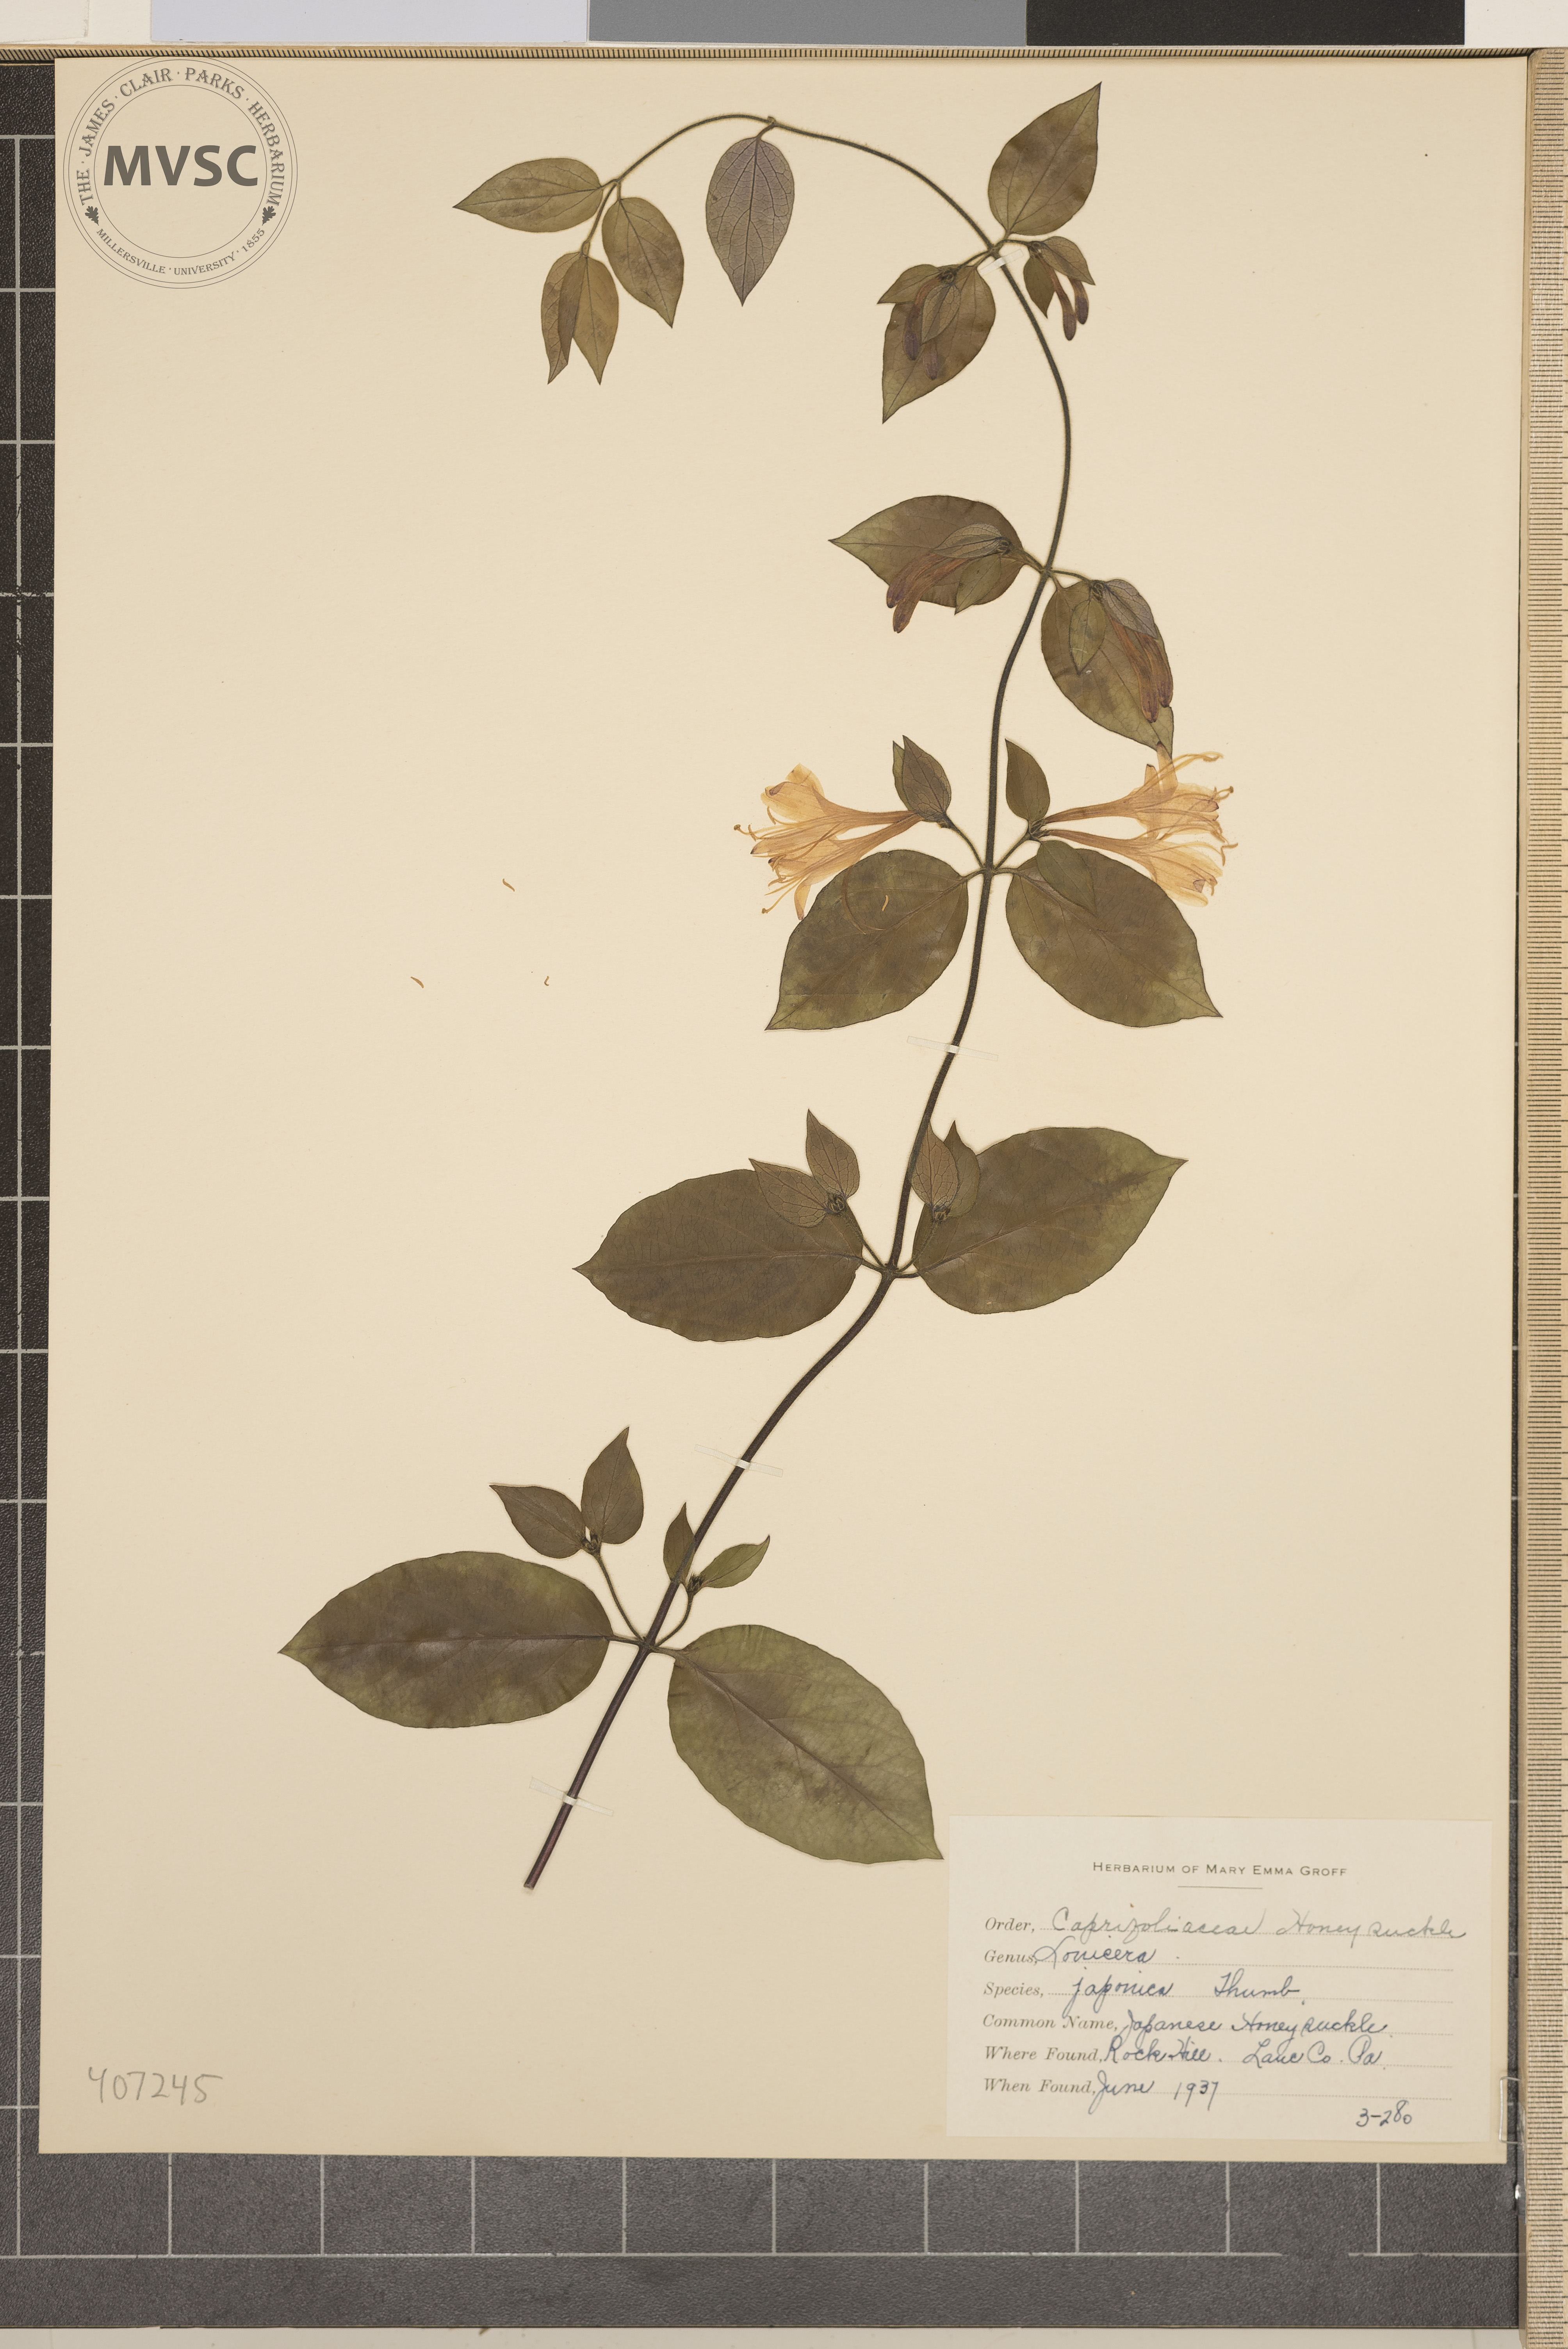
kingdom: Plantae
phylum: Tracheophyta
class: Magnoliopsida
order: Dipsacales
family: Caprifoliaceae
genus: Lonicera
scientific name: Lonicera japonica
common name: Japanese honeysuckle
